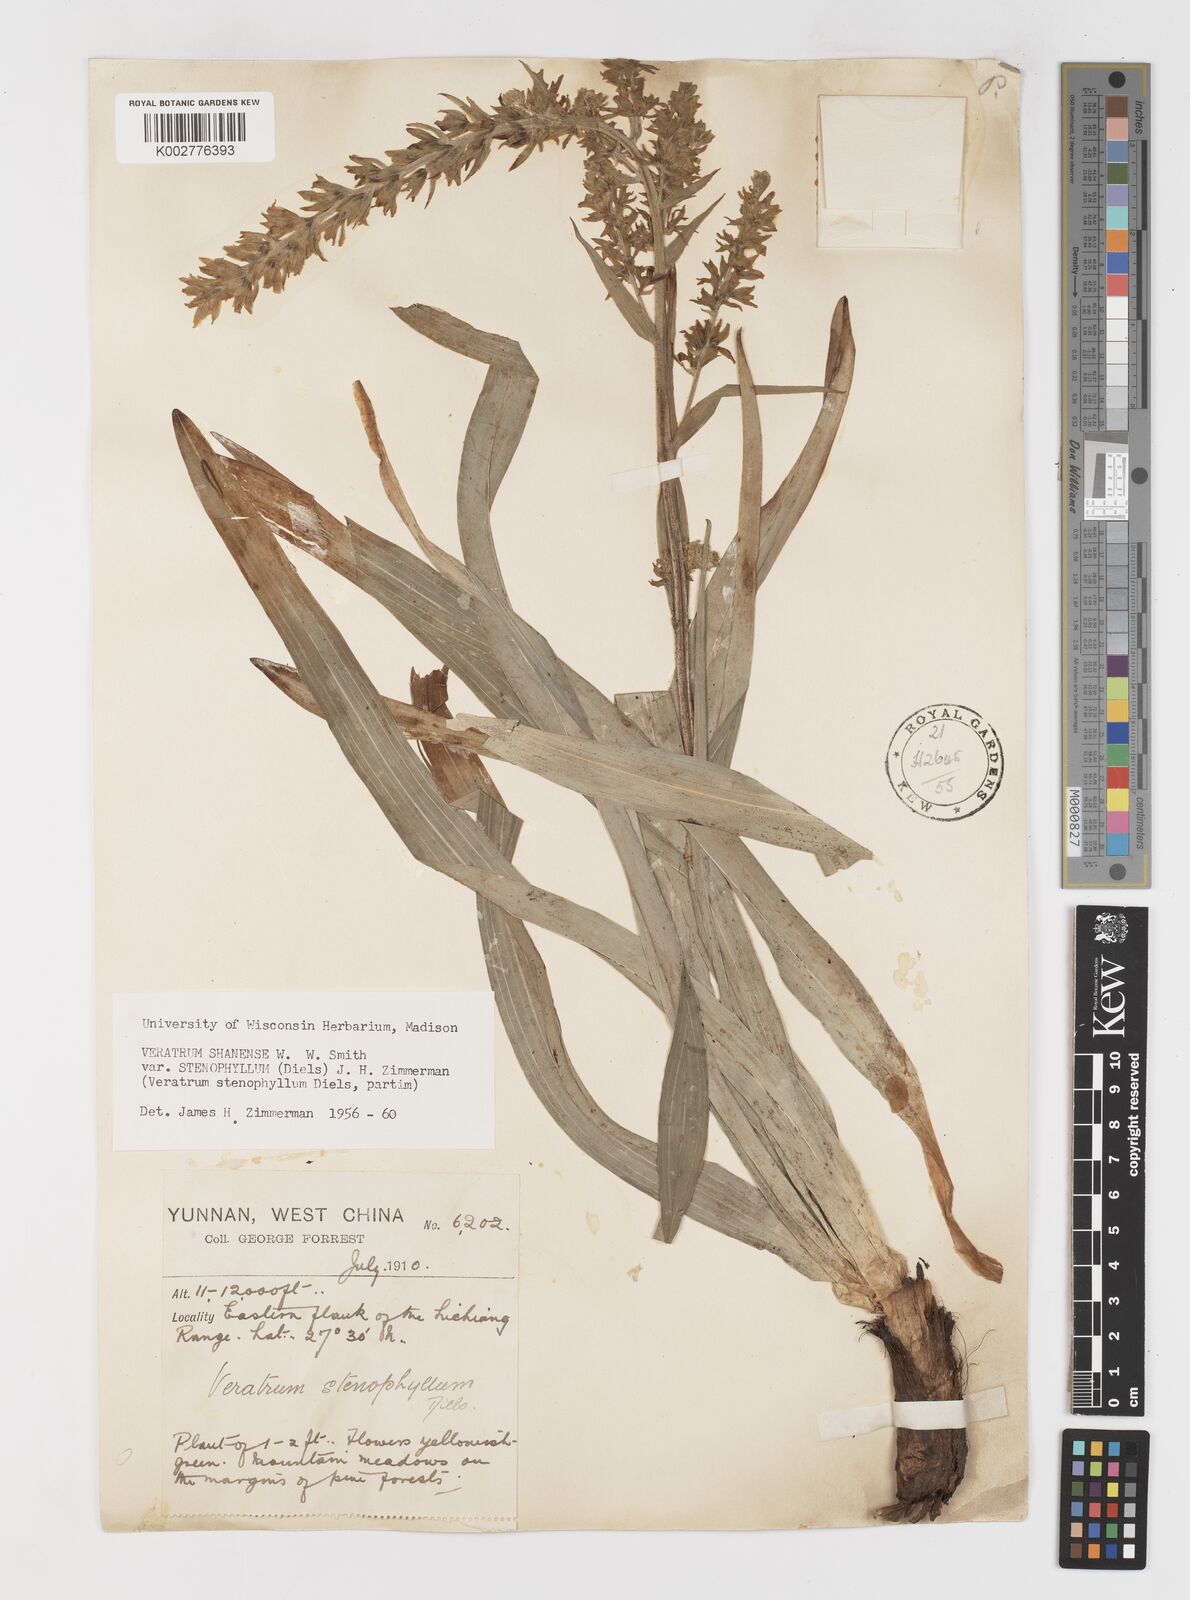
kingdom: Plantae
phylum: Tracheophyta
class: Liliopsida
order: Liliales
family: Melanthiaceae
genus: Veratrum
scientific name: Veratrum shanense
